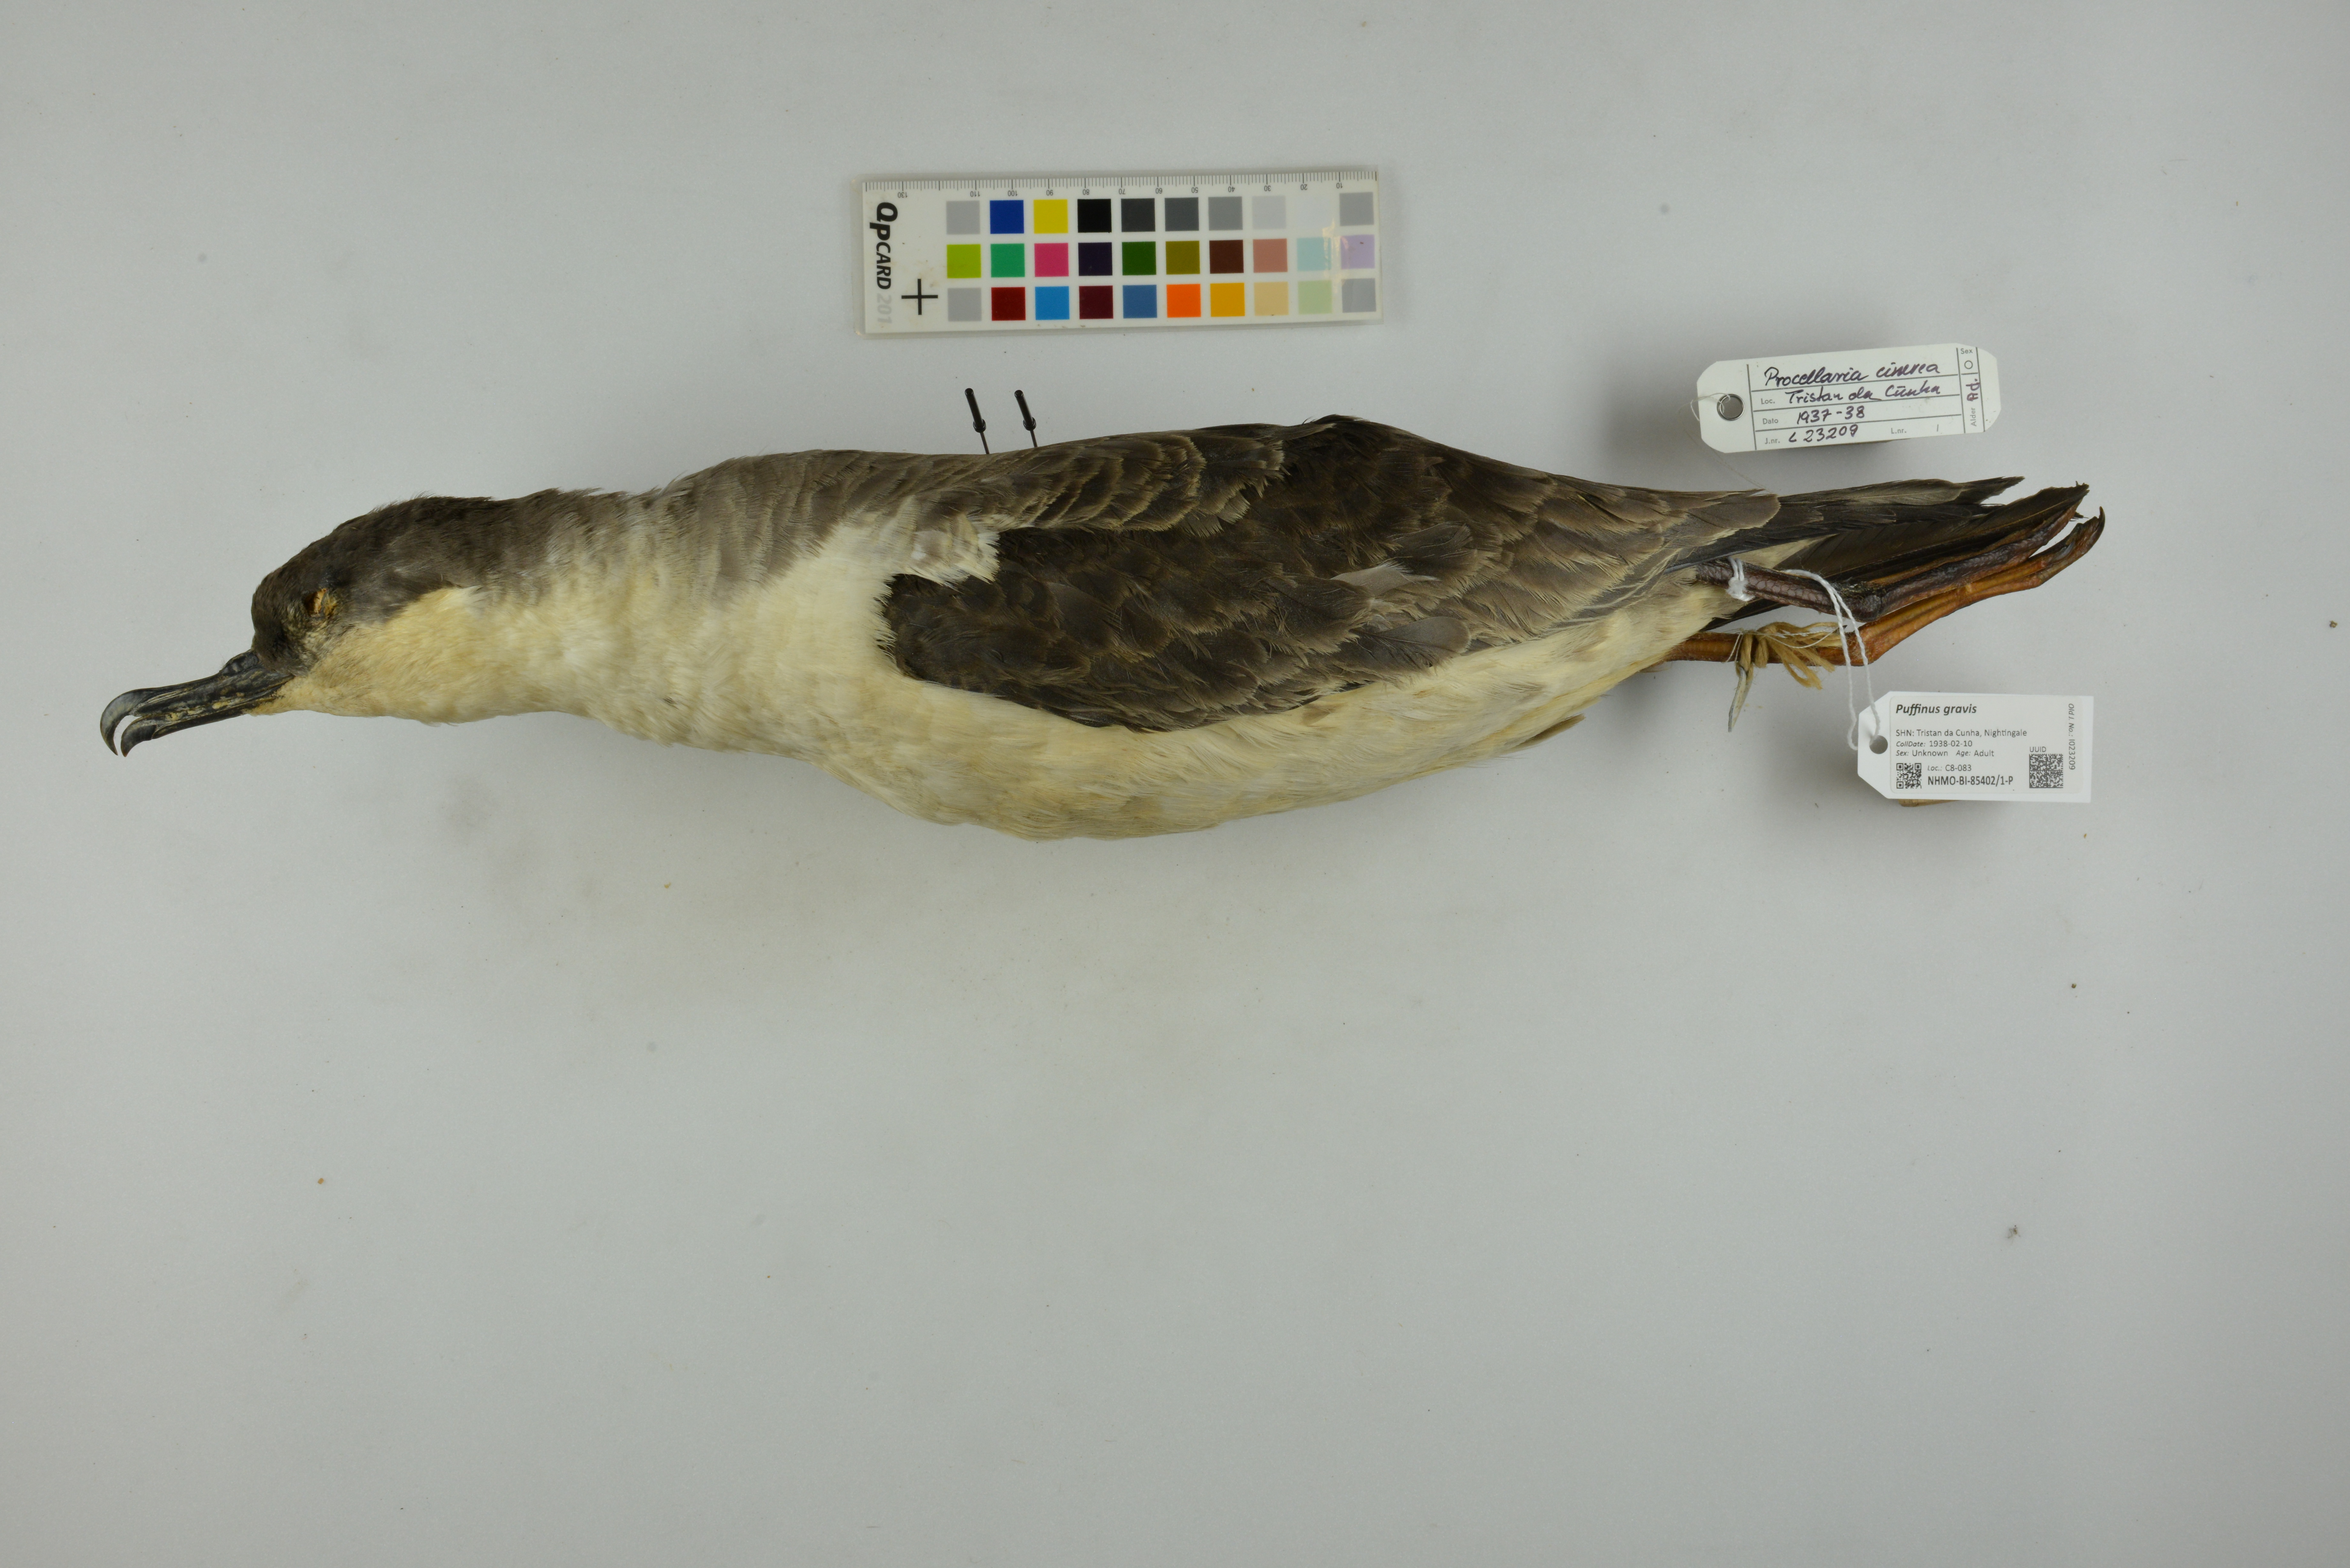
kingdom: Animalia
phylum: Chordata
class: Aves
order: Procellariiformes
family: Procellariidae
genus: Puffinus
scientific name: Puffinus gravis
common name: Great shearwater
